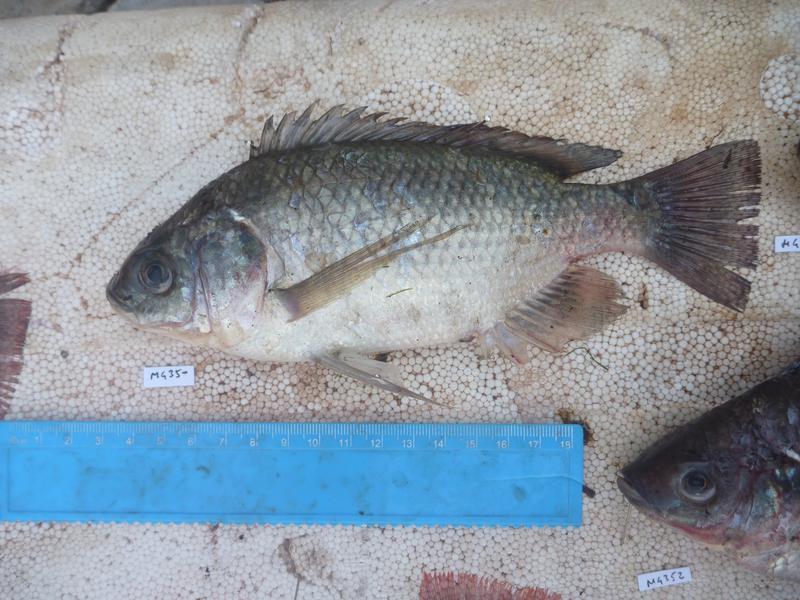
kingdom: Animalia
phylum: Chordata
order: Perciformes
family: Cichlidae
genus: Oreochromis
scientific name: Oreochromis esculentus
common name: Carp
